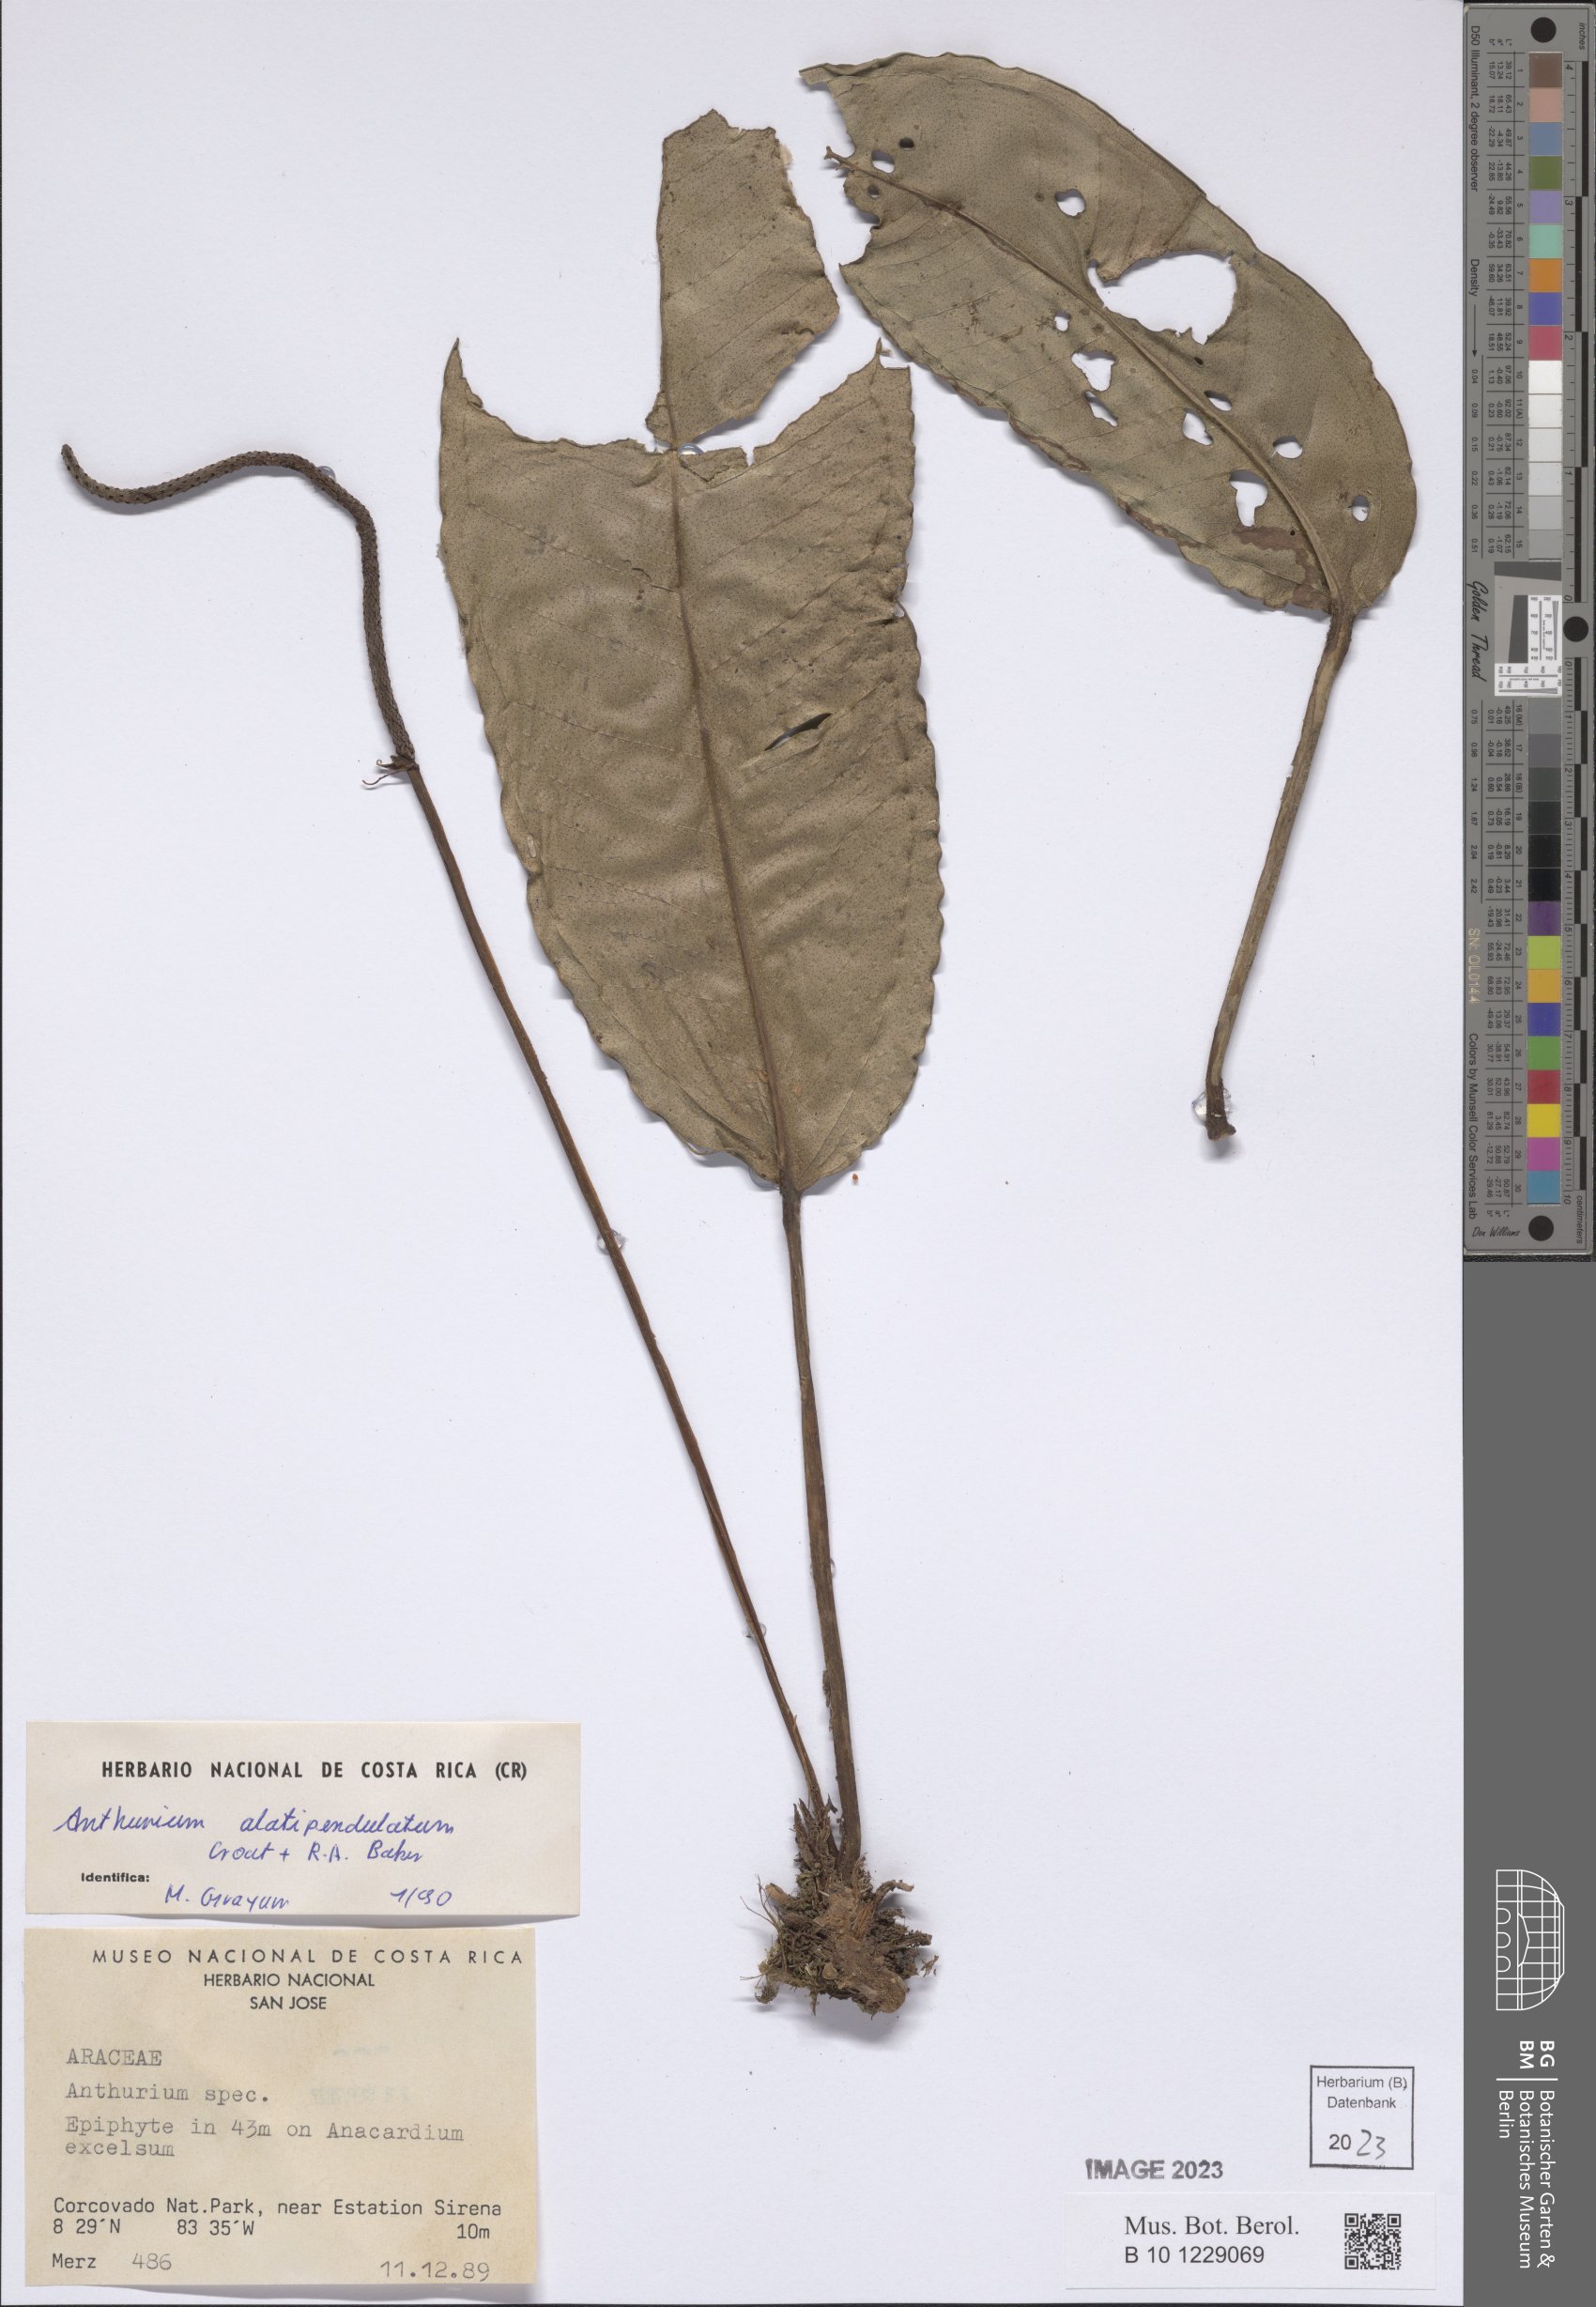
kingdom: Plantae
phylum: Tracheophyta
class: Liliopsida
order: Alismatales
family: Araceae
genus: Anthurium
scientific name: Anthurium alatipedunculatum
